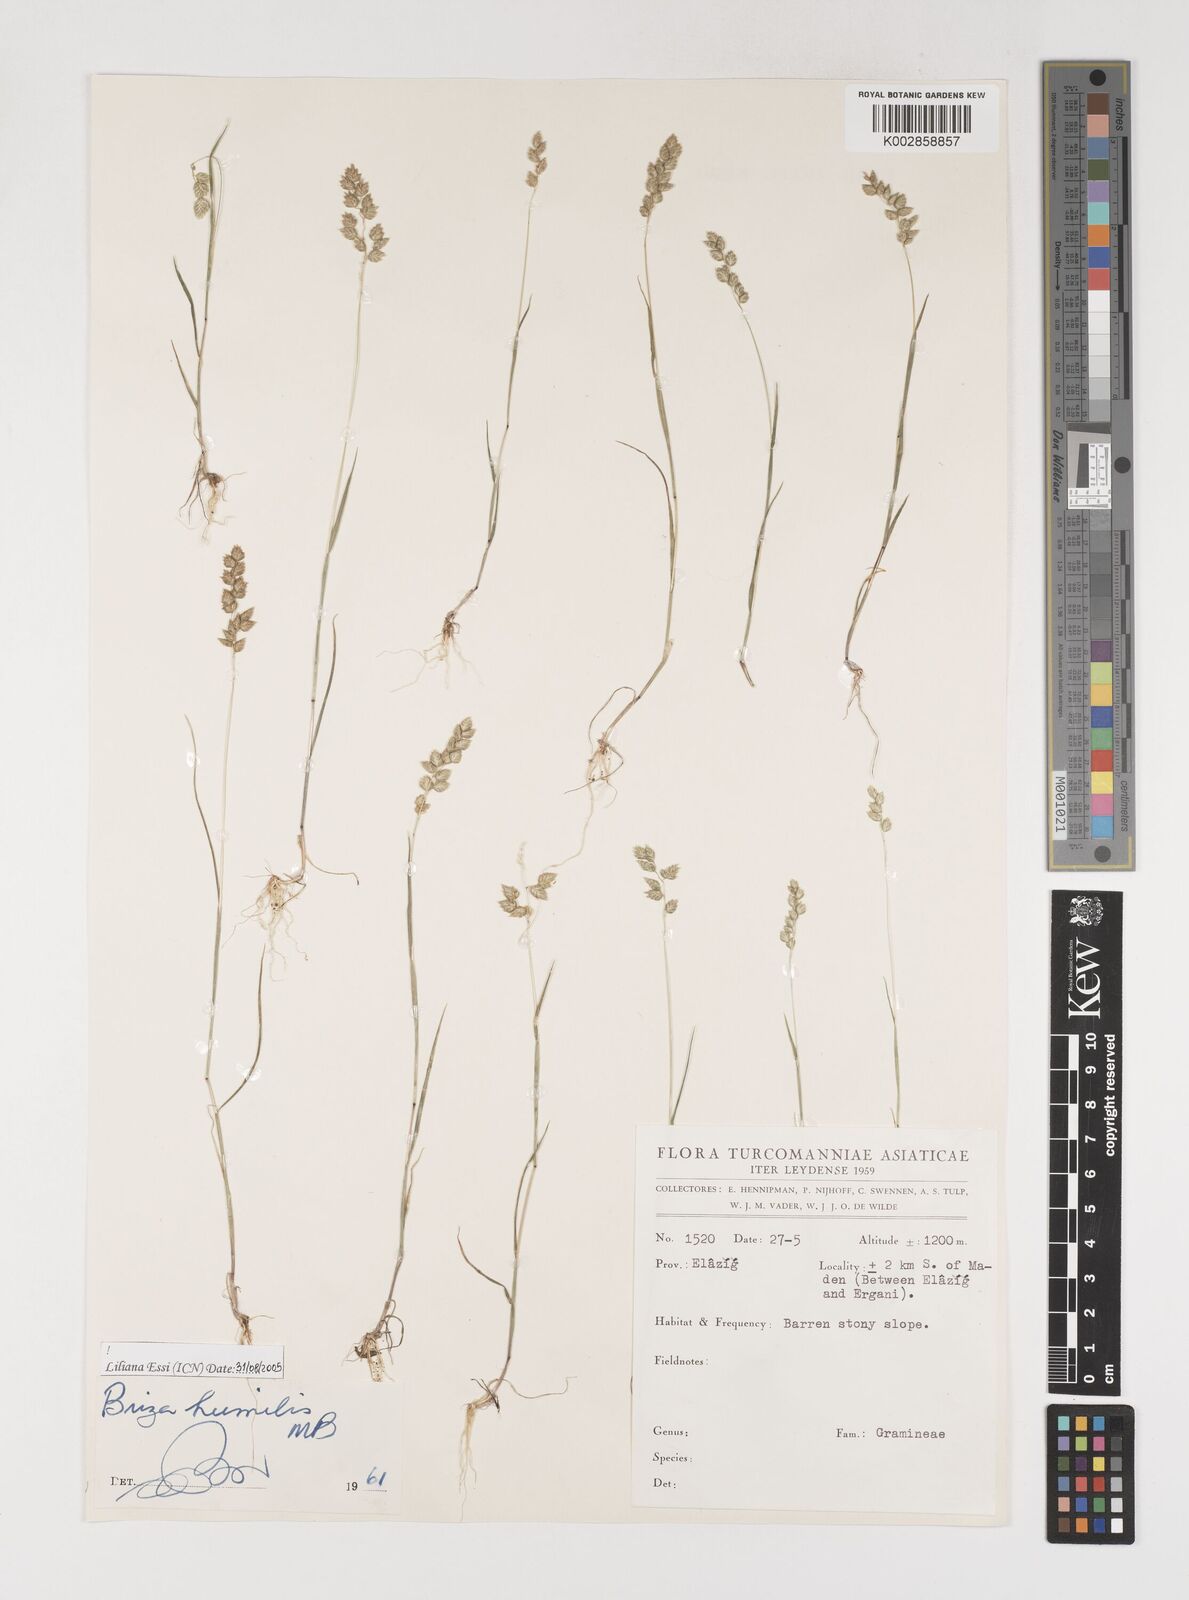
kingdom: Plantae
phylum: Tracheophyta
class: Liliopsida
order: Poales
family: Poaceae
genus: Briza
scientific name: Briza humilis
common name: Spiked quaking grass
